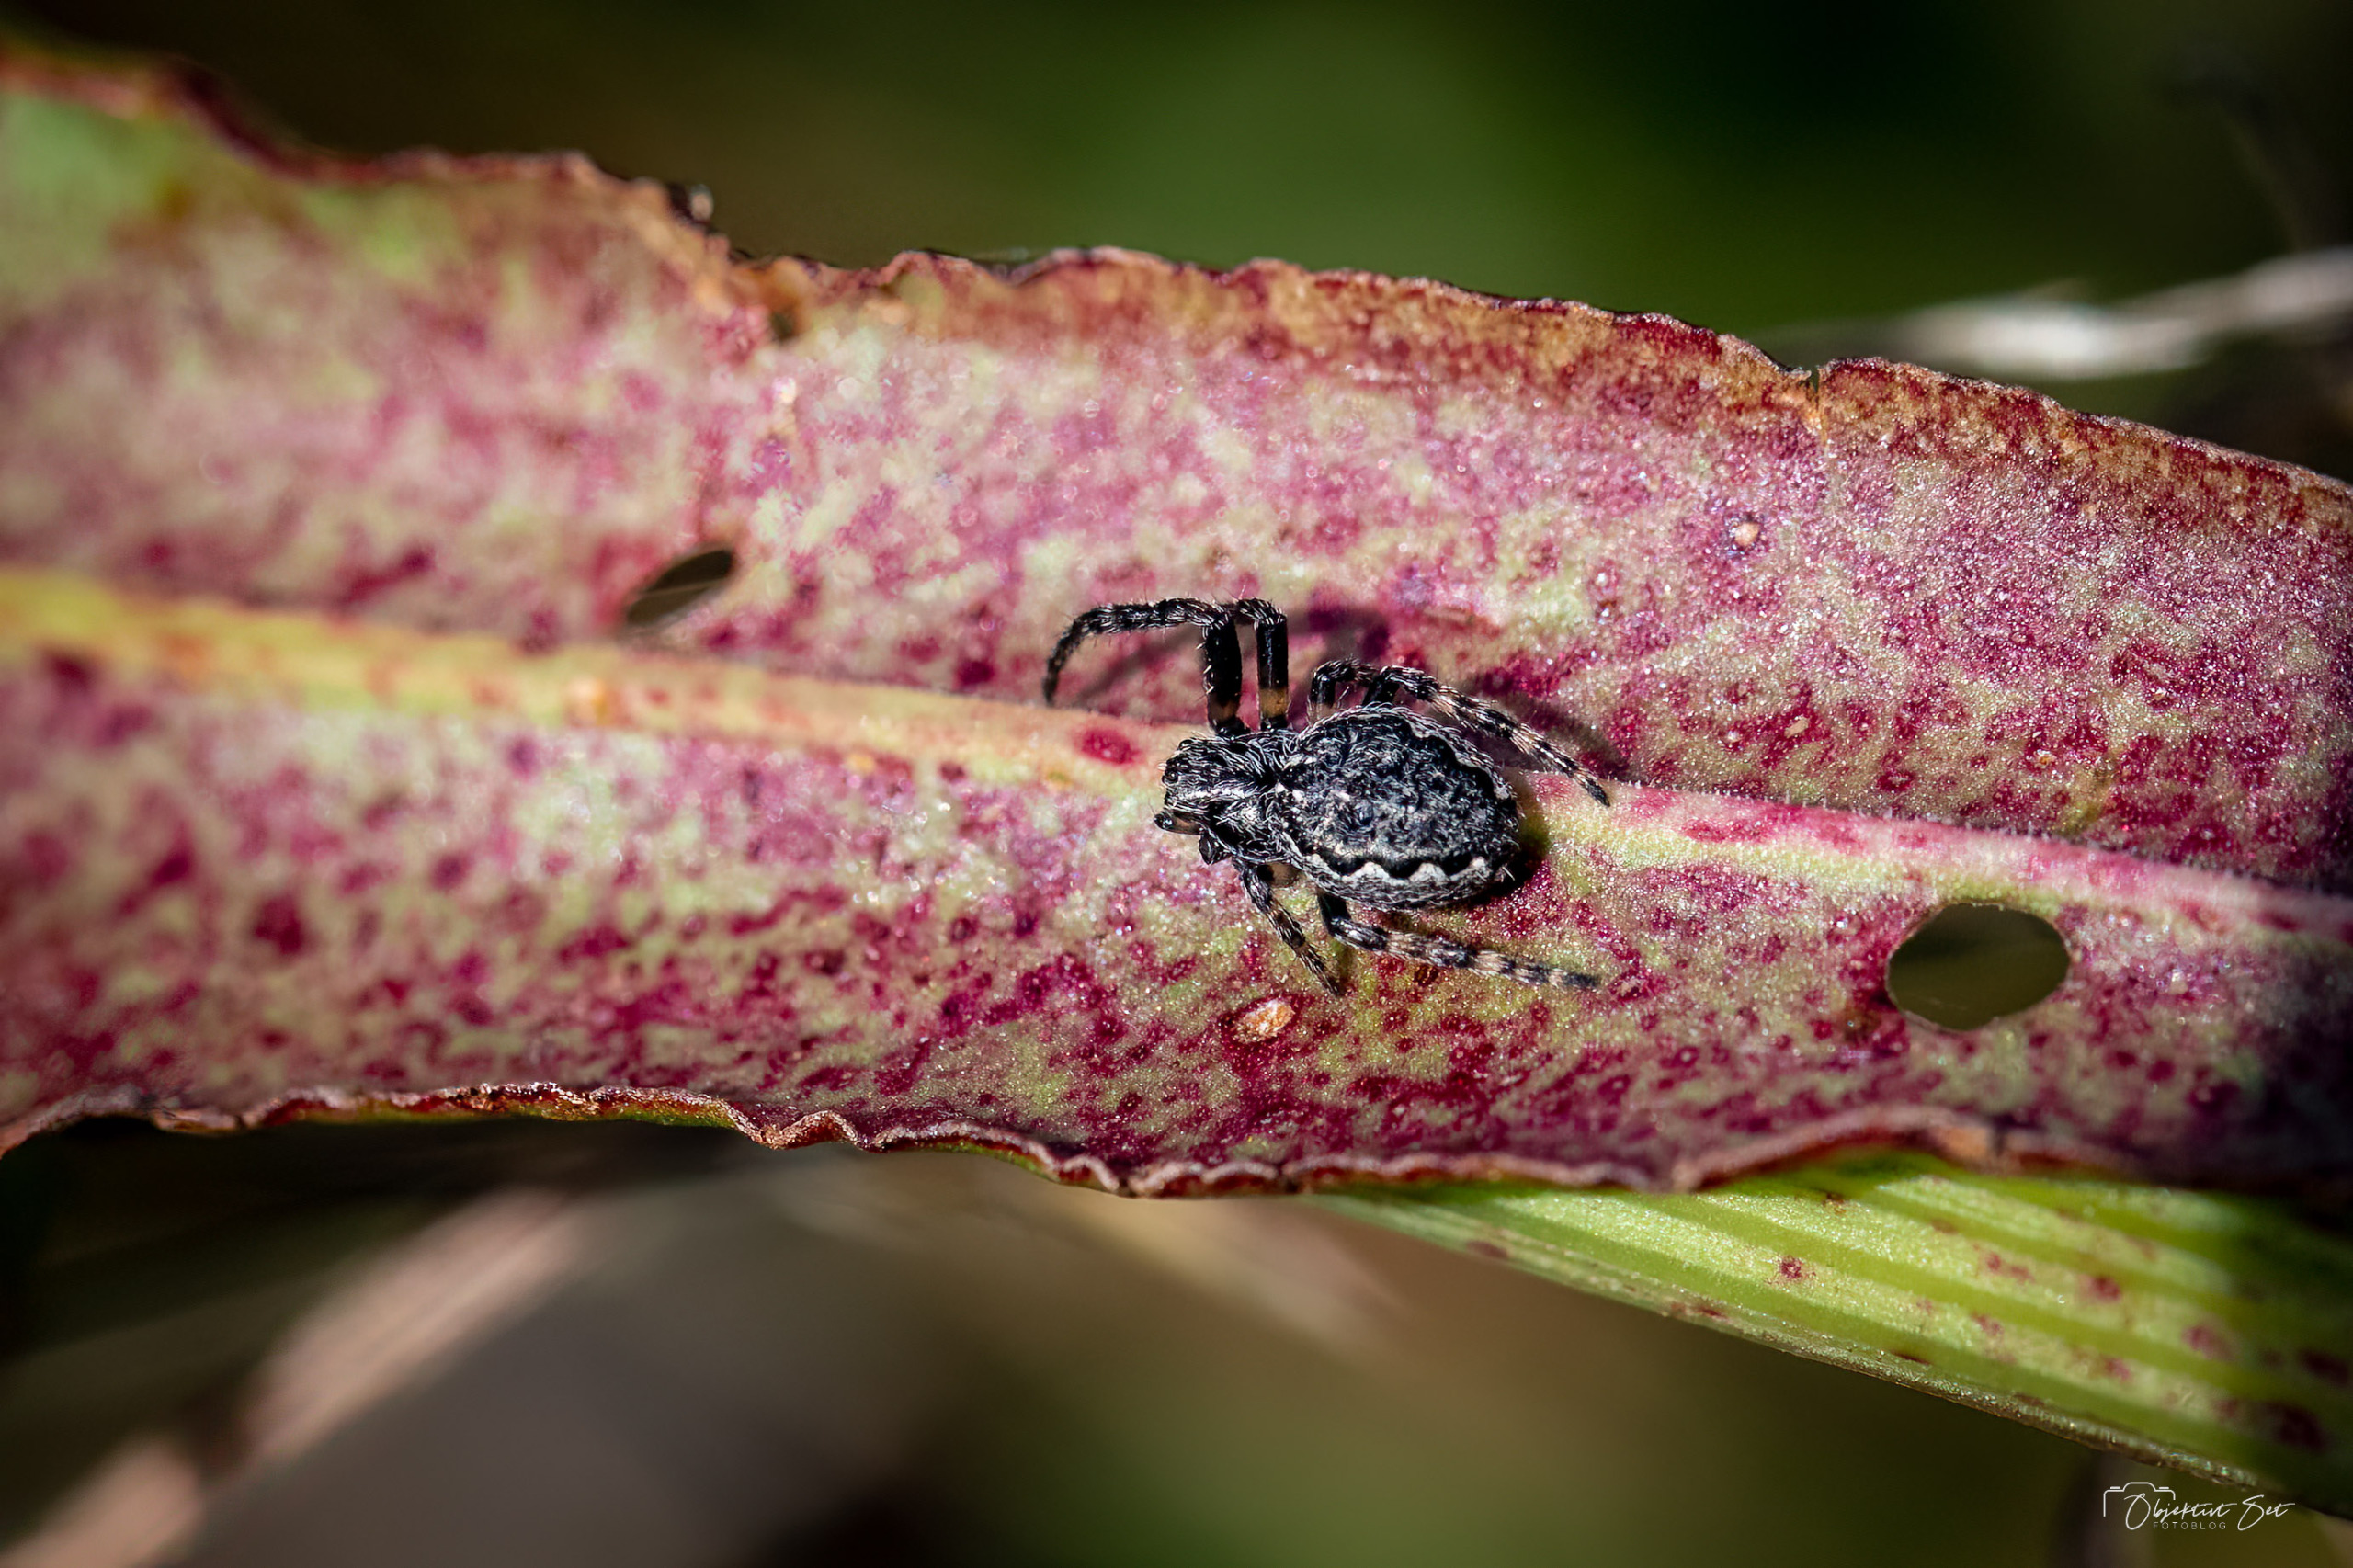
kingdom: Animalia
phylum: Arthropoda
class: Arachnida
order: Araneae
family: Araneidae
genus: Nuctenea
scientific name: Nuctenea umbratica
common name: Flad hjulspinder
